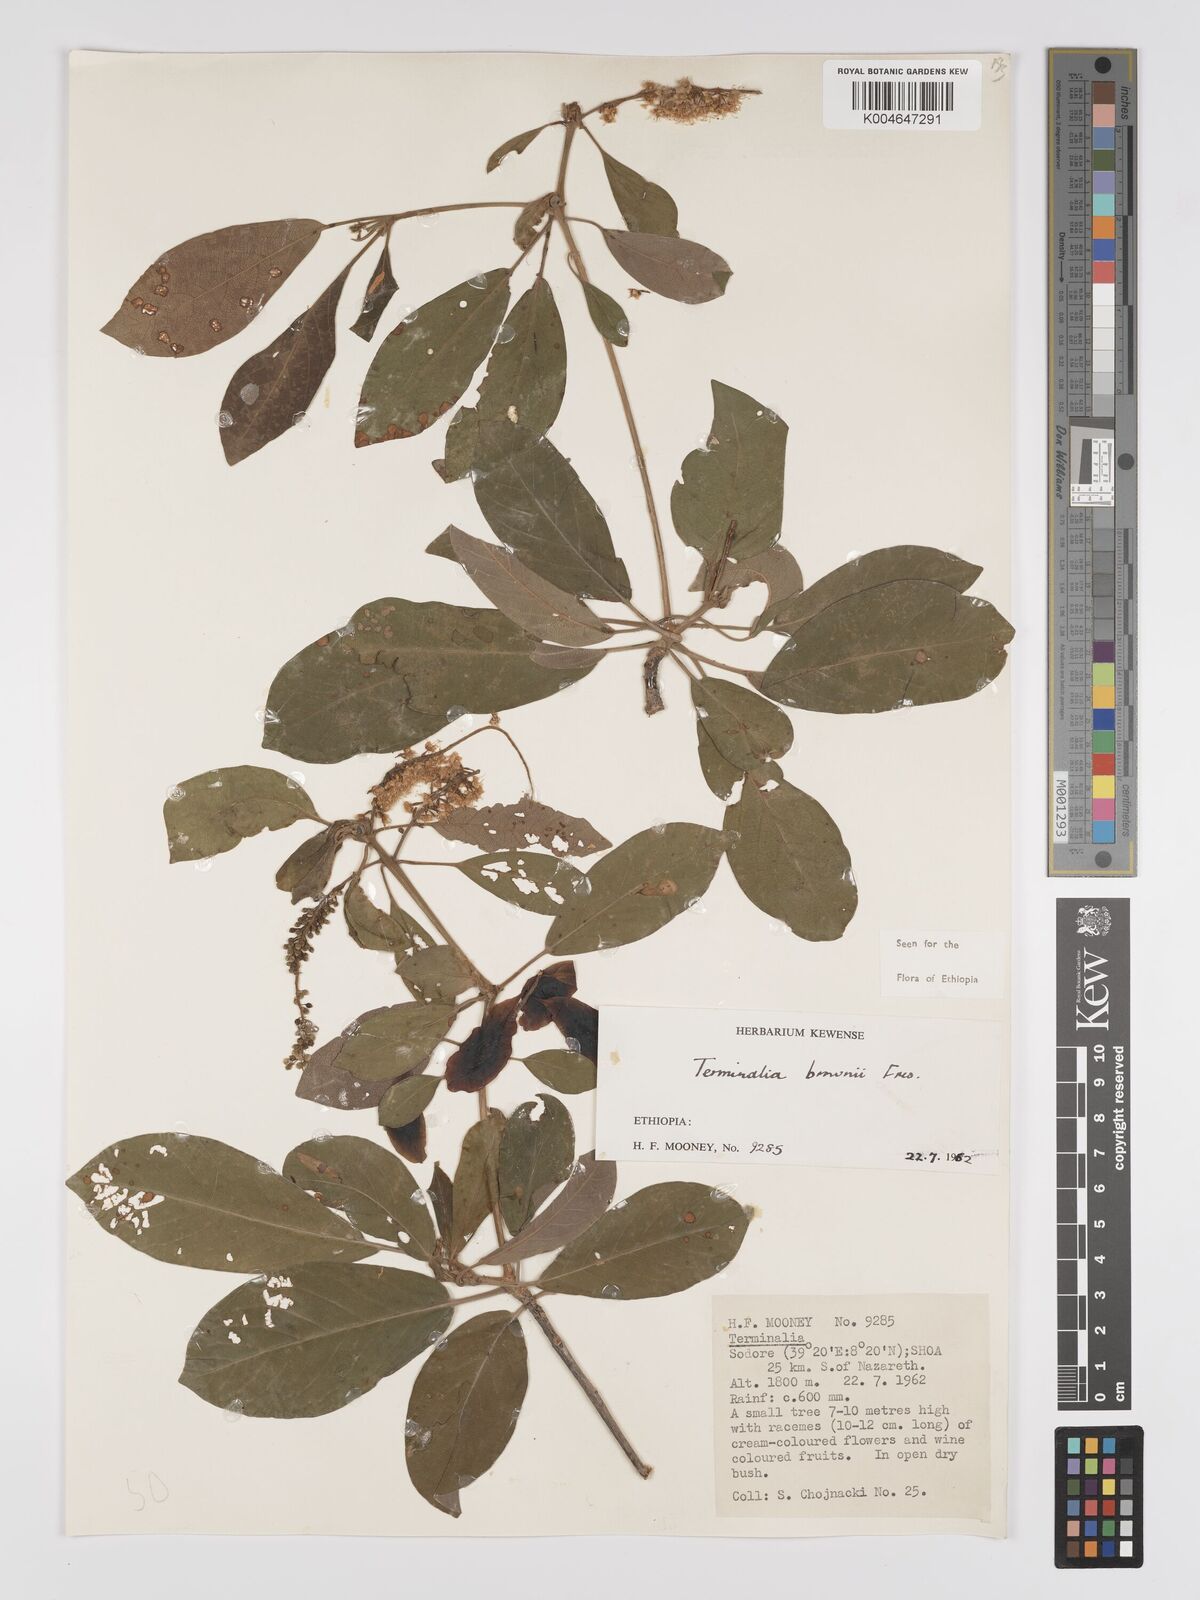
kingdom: Plantae
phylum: Tracheophyta
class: Magnoliopsida
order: Myrtales
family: Combretaceae
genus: Terminalia
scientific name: Terminalia brownii
